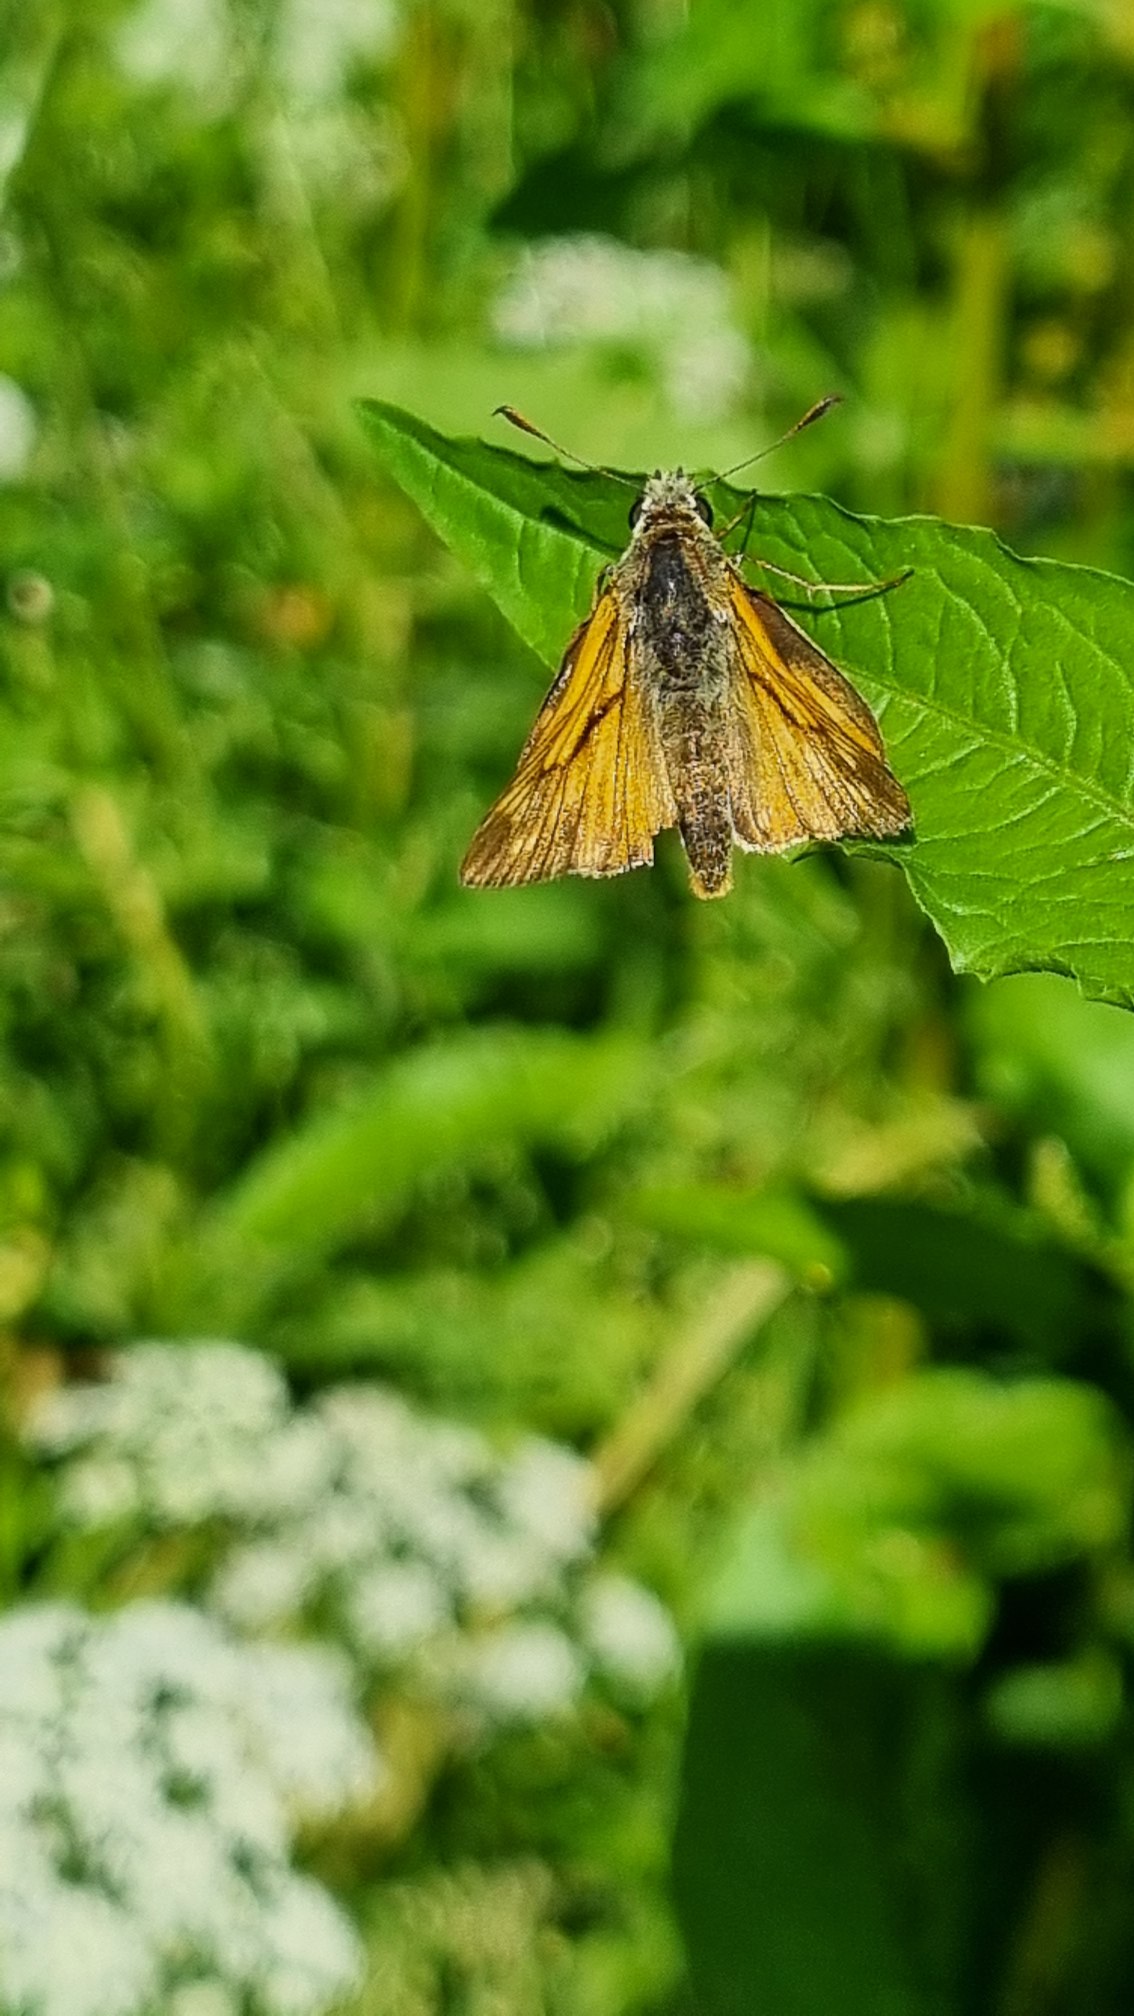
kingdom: Animalia
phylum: Arthropoda
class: Insecta
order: Lepidoptera
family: Hesperiidae
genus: Ochlodes
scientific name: Ochlodes venata
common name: Stor bredpande
